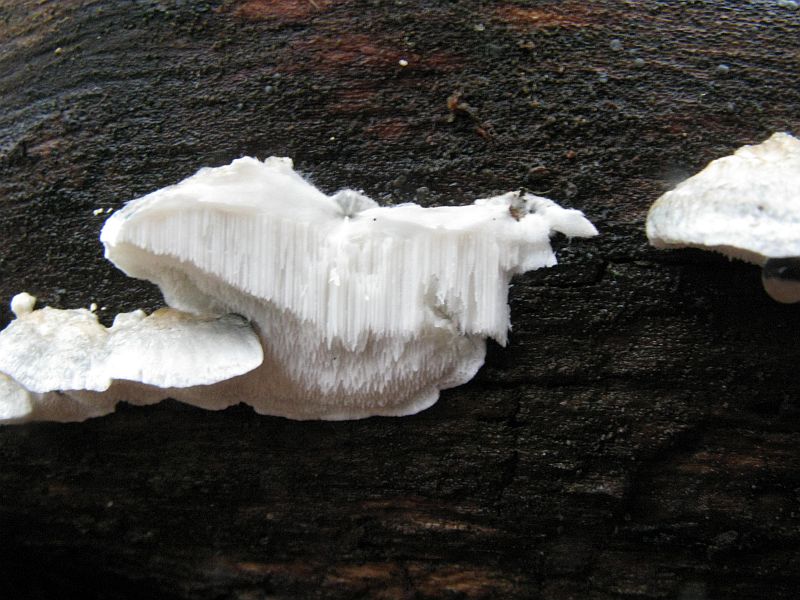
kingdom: Fungi
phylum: Basidiomycota
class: Agaricomycetes
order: Polyporales
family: Polyporaceae
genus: Cyanosporus
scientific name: Cyanosporus caesius
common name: blålig kødporesvamp
